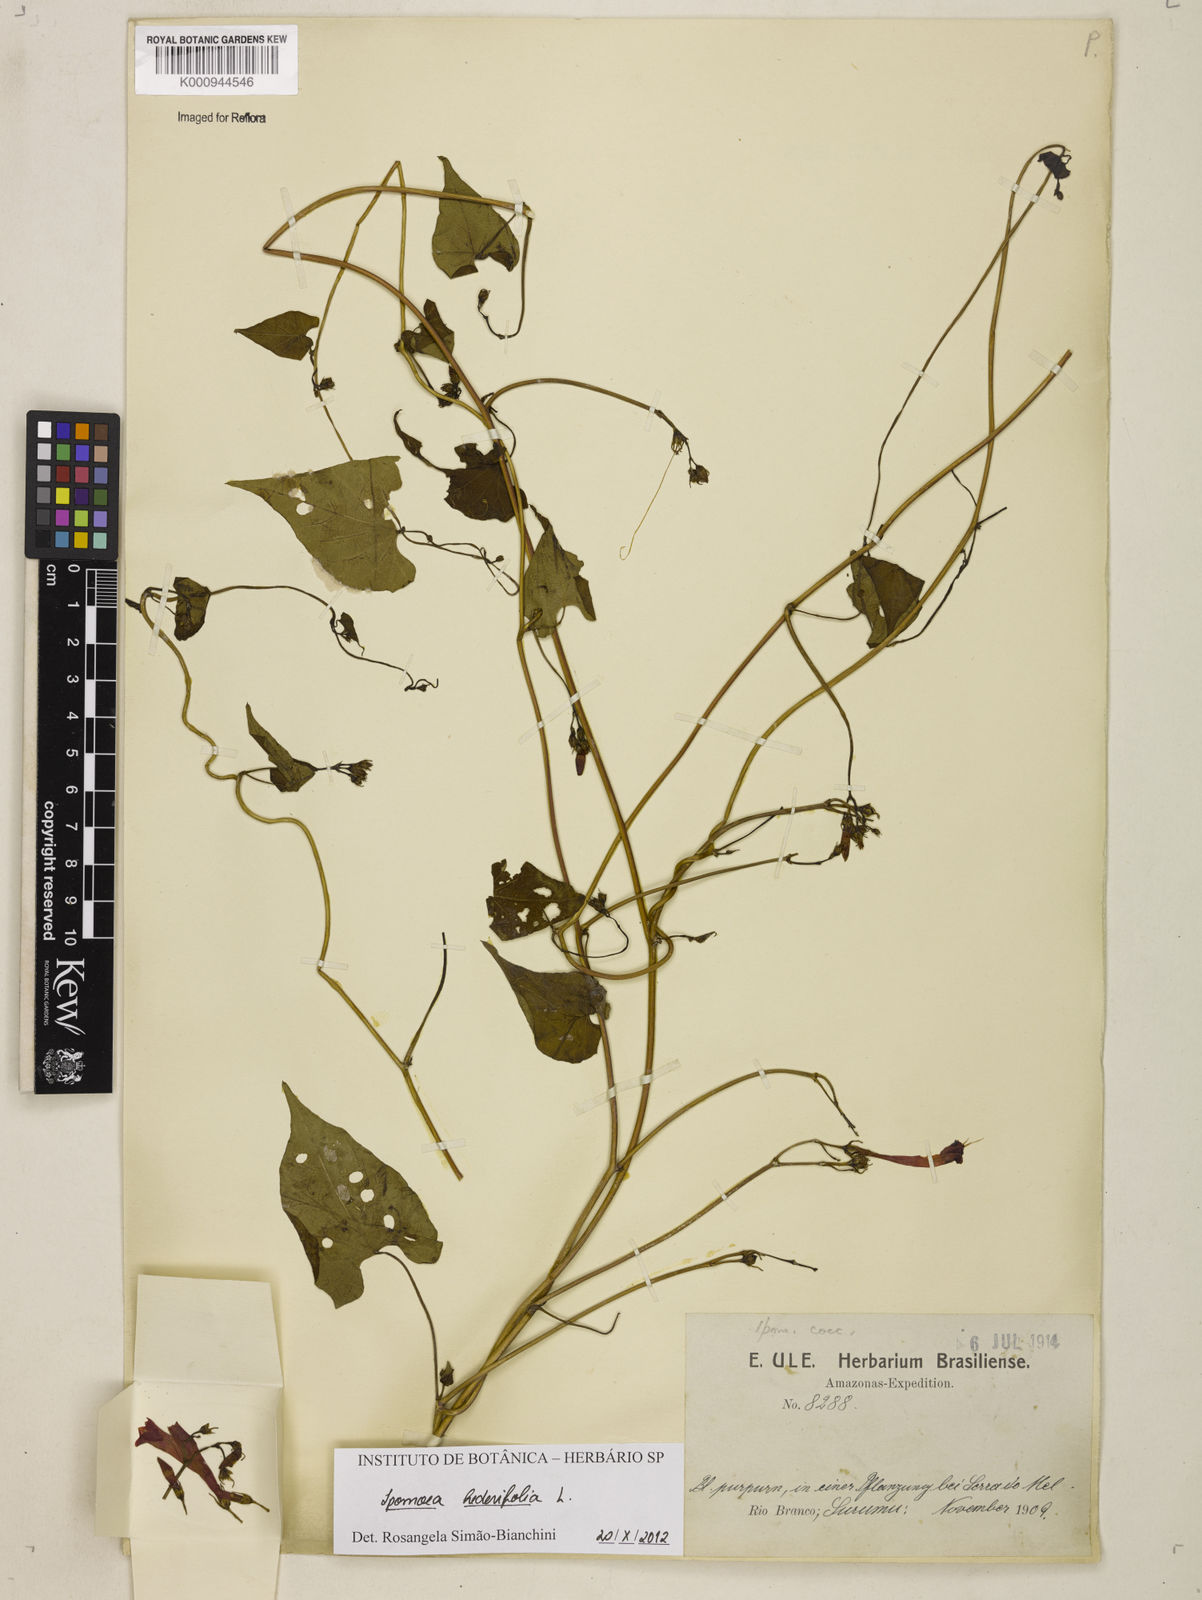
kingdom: Plantae
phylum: Tracheophyta
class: Magnoliopsida
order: Solanales
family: Convolvulaceae
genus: Ipomoea
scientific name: Ipomoea hederifolia
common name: Ivy-leaf morning-glory
